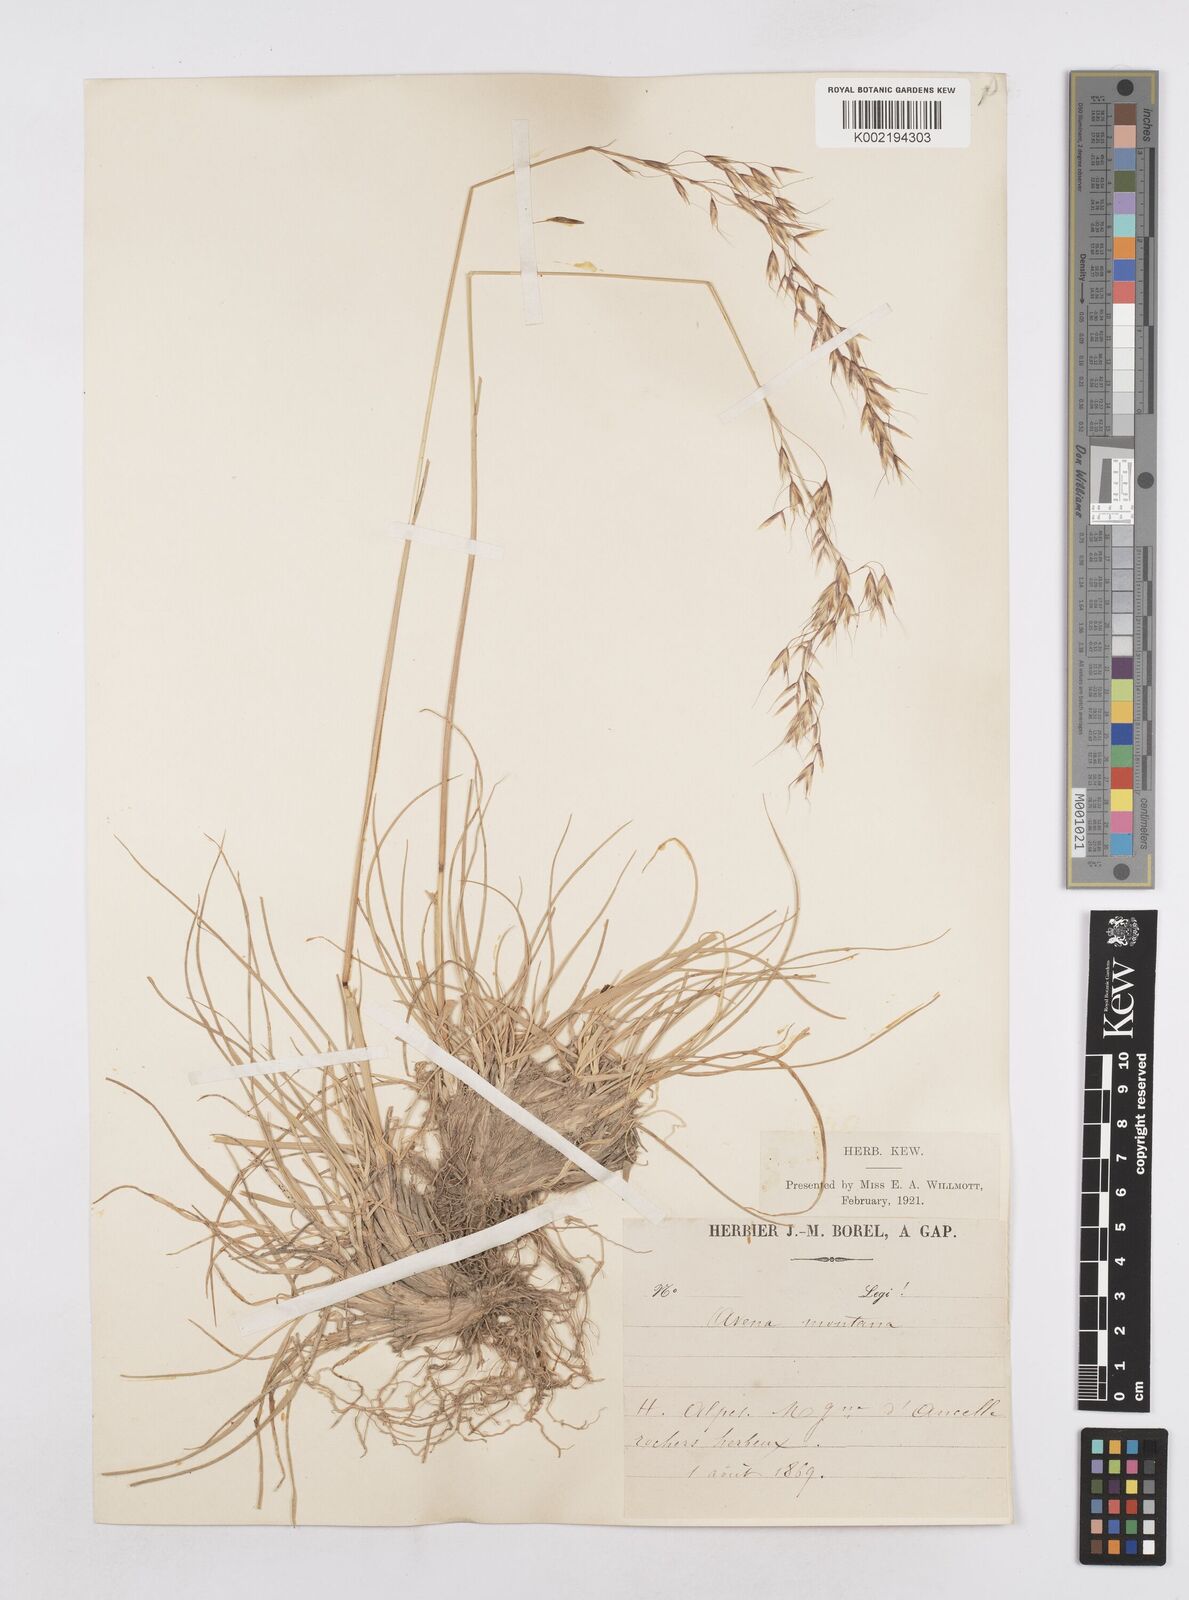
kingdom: Plantae
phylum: Tracheophyta
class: Liliopsida
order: Poales
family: Poaceae
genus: Helictotrichon
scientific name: Helictotrichon sedenense
